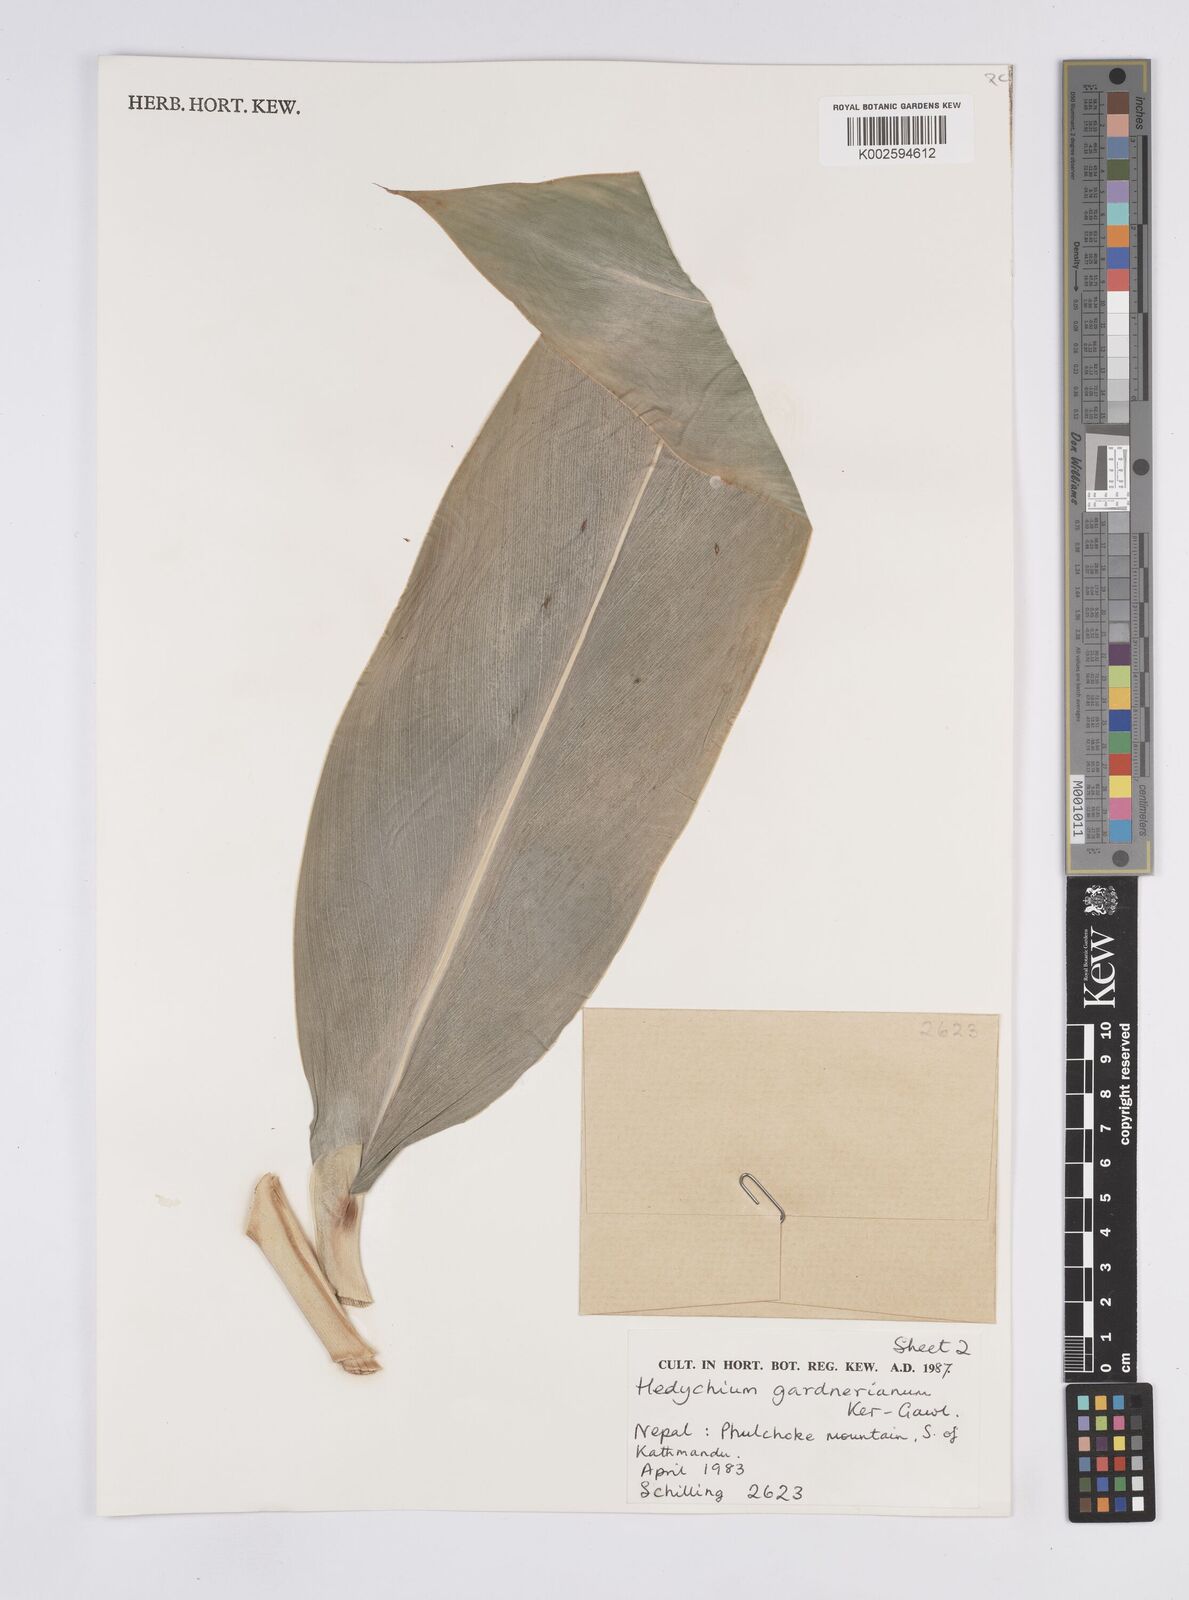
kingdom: Plantae
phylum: Tracheophyta
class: Liliopsida
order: Zingiberales
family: Zingiberaceae
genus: Hedychium
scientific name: Hedychium gardnerianum
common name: Himalayan ginger
